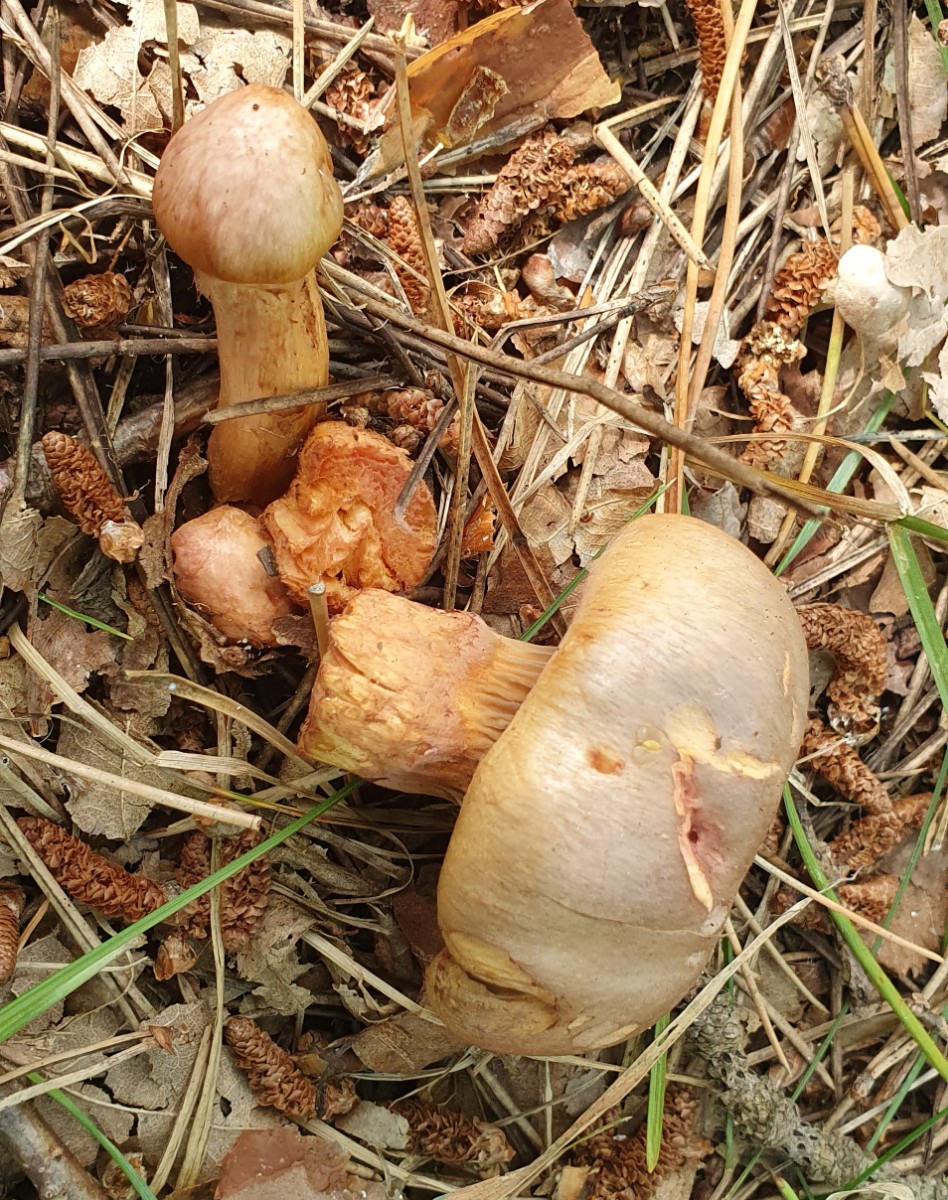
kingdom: Fungi
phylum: Basidiomycota
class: Agaricomycetes
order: Boletales
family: Gomphidiaceae
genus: Chroogomphus
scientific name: Chroogomphus rutilus
